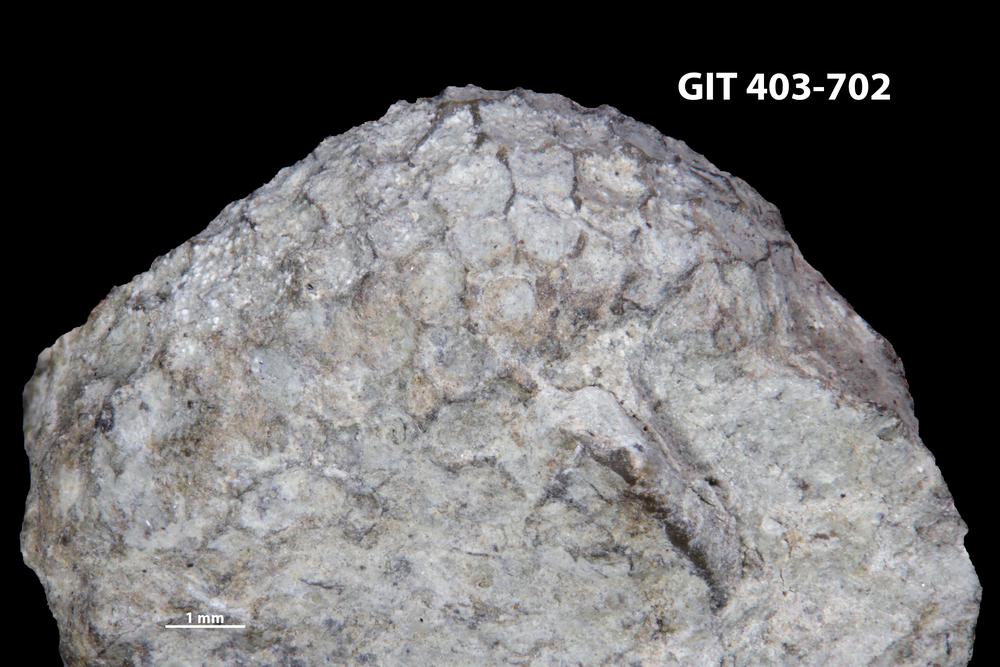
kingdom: Animalia
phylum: Cnidaria
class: Anthozoa
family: Favositidae
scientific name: Favositidae
